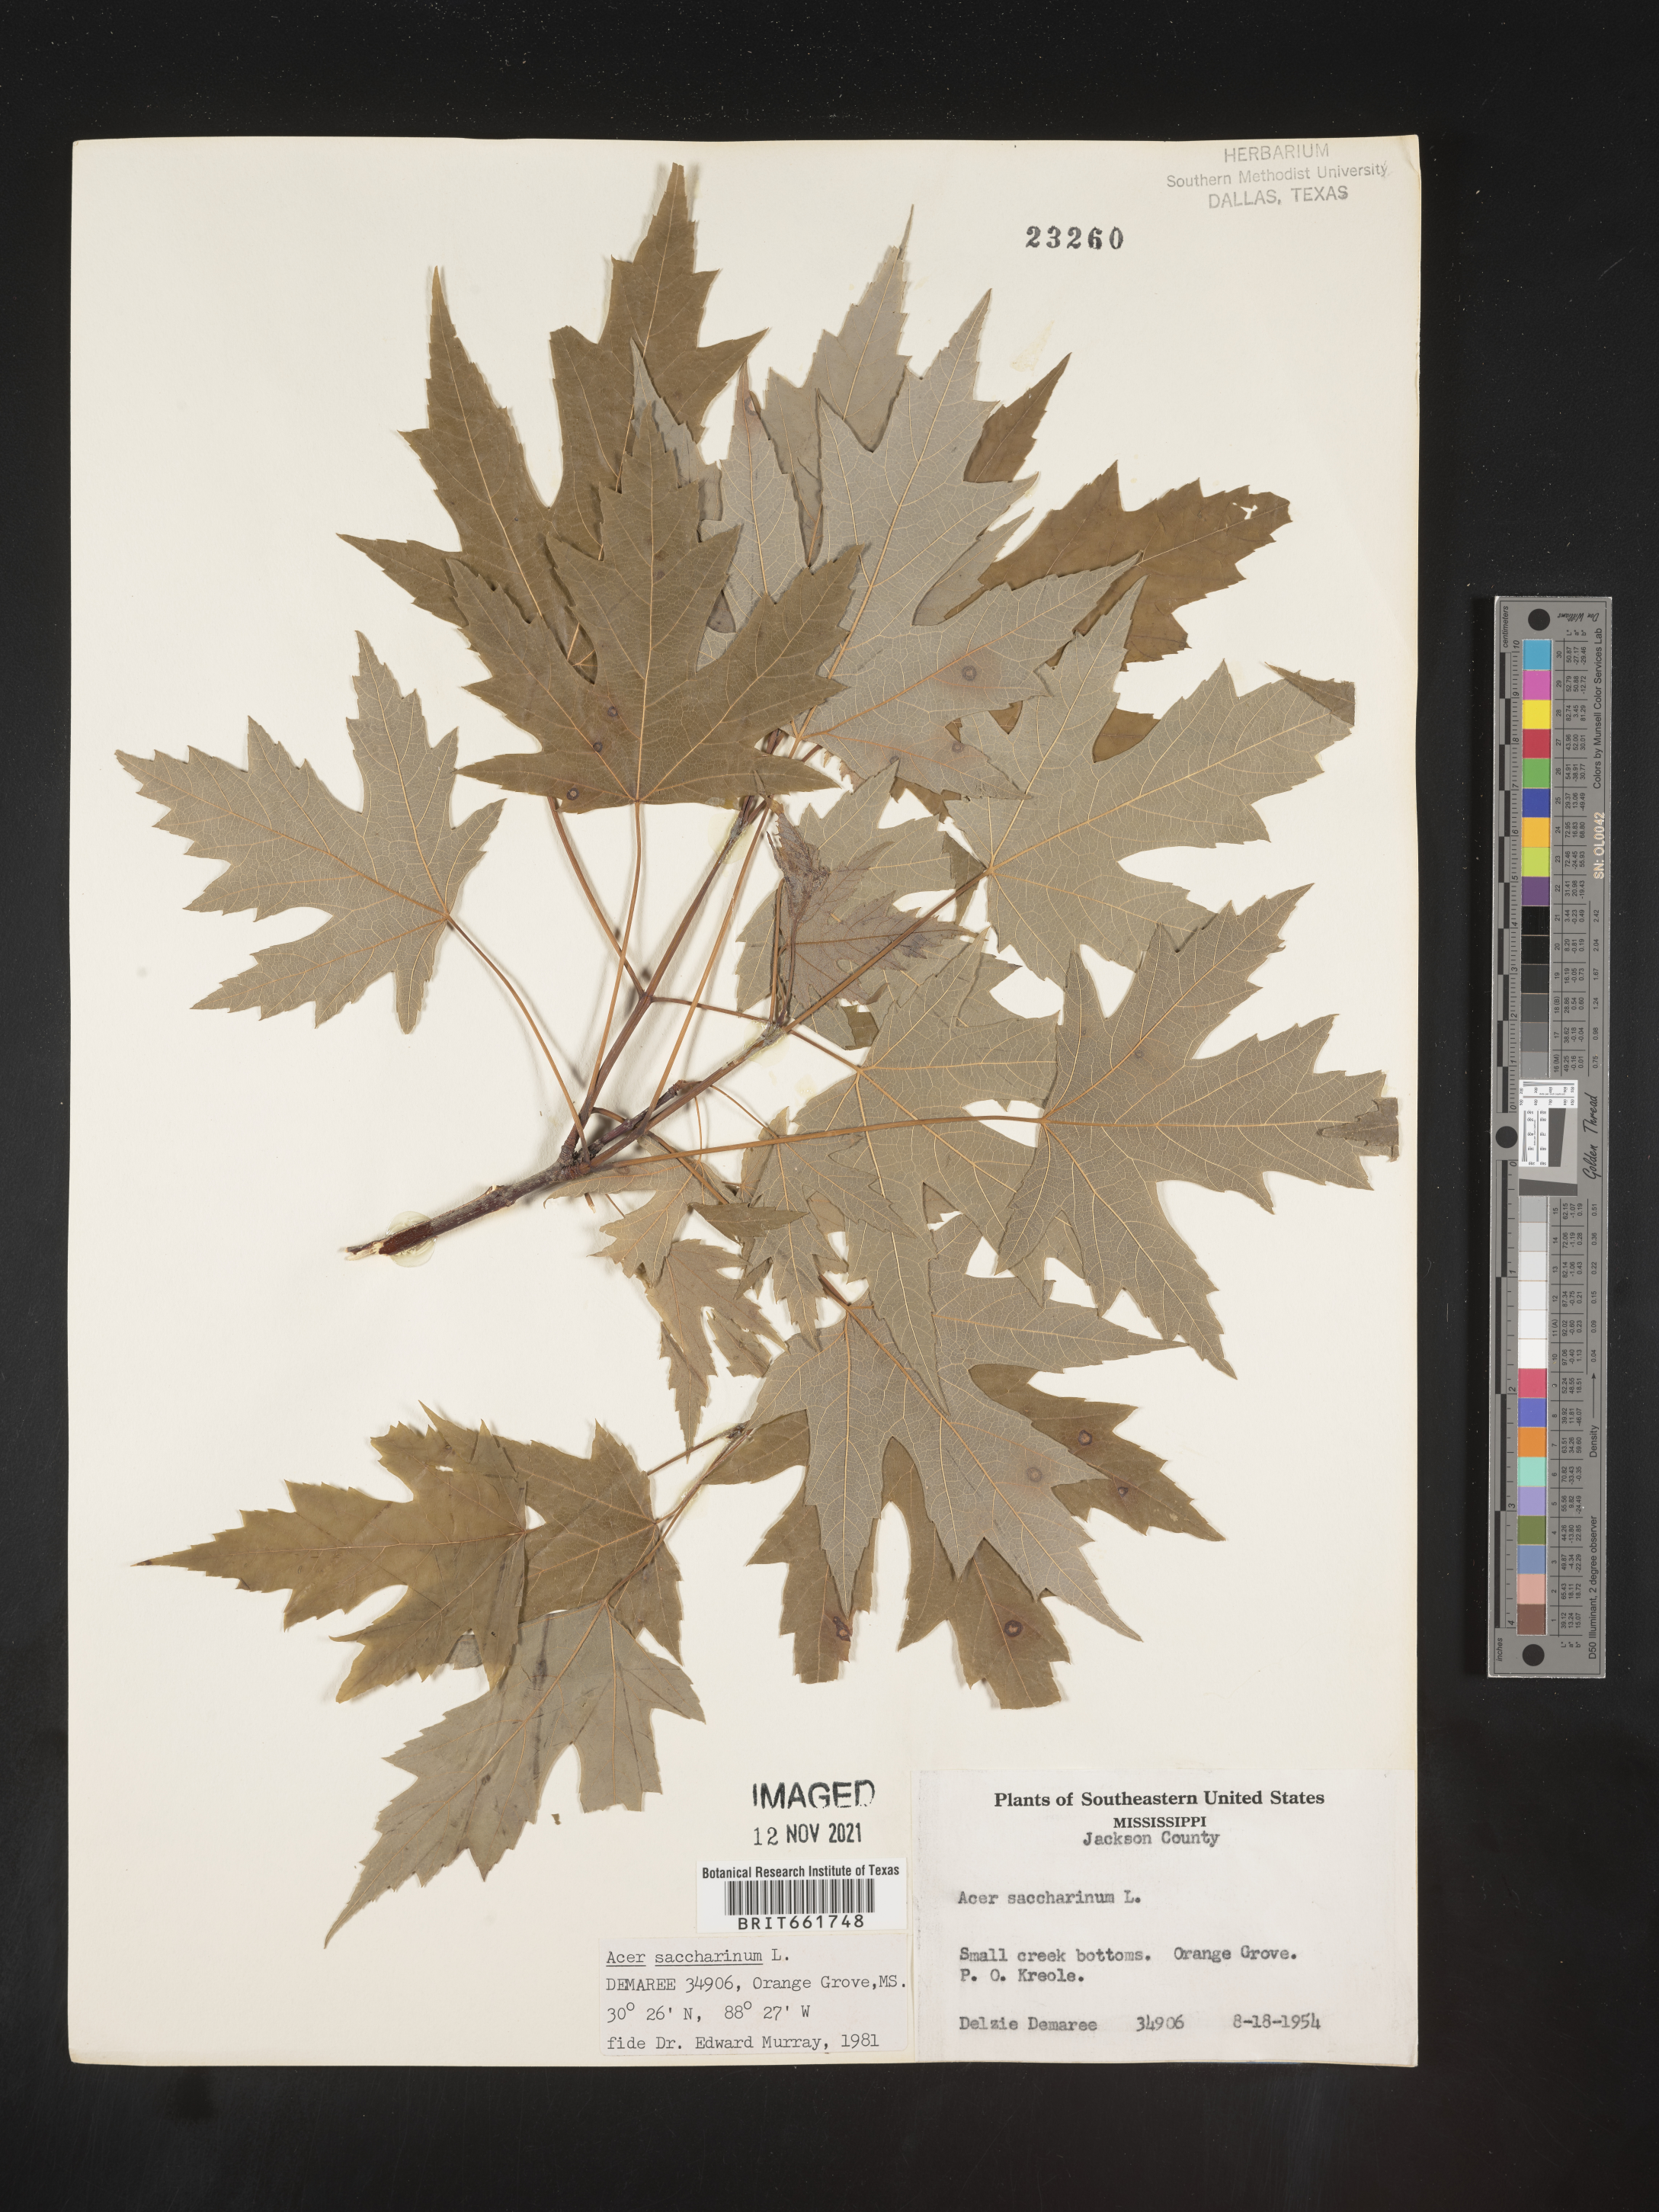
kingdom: Plantae
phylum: Tracheophyta
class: Magnoliopsida
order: Sapindales
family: Sapindaceae
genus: Acer
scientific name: Acer saccharinum
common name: Silver maple
